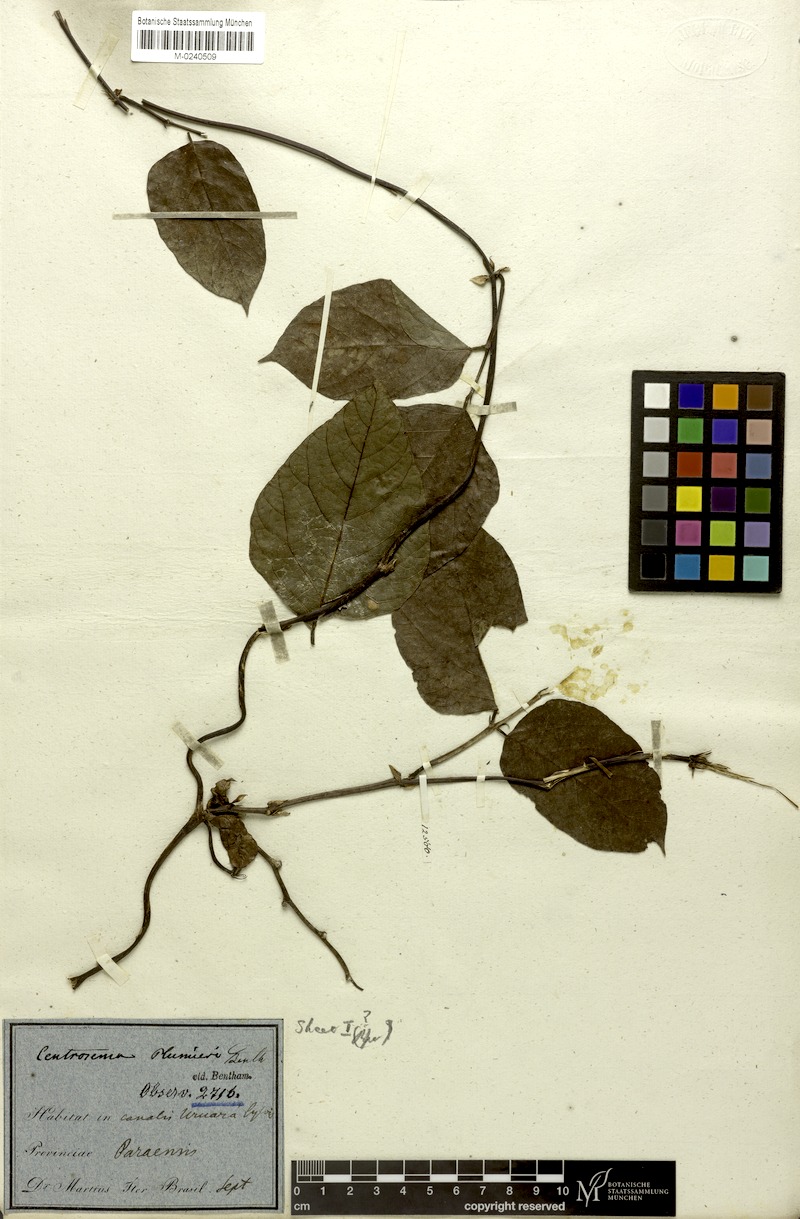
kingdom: Plantae
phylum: Tracheophyta
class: Magnoliopsida
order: Fabales
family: Fabaceae
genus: Centrosema
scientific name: Centrosema plumieri
